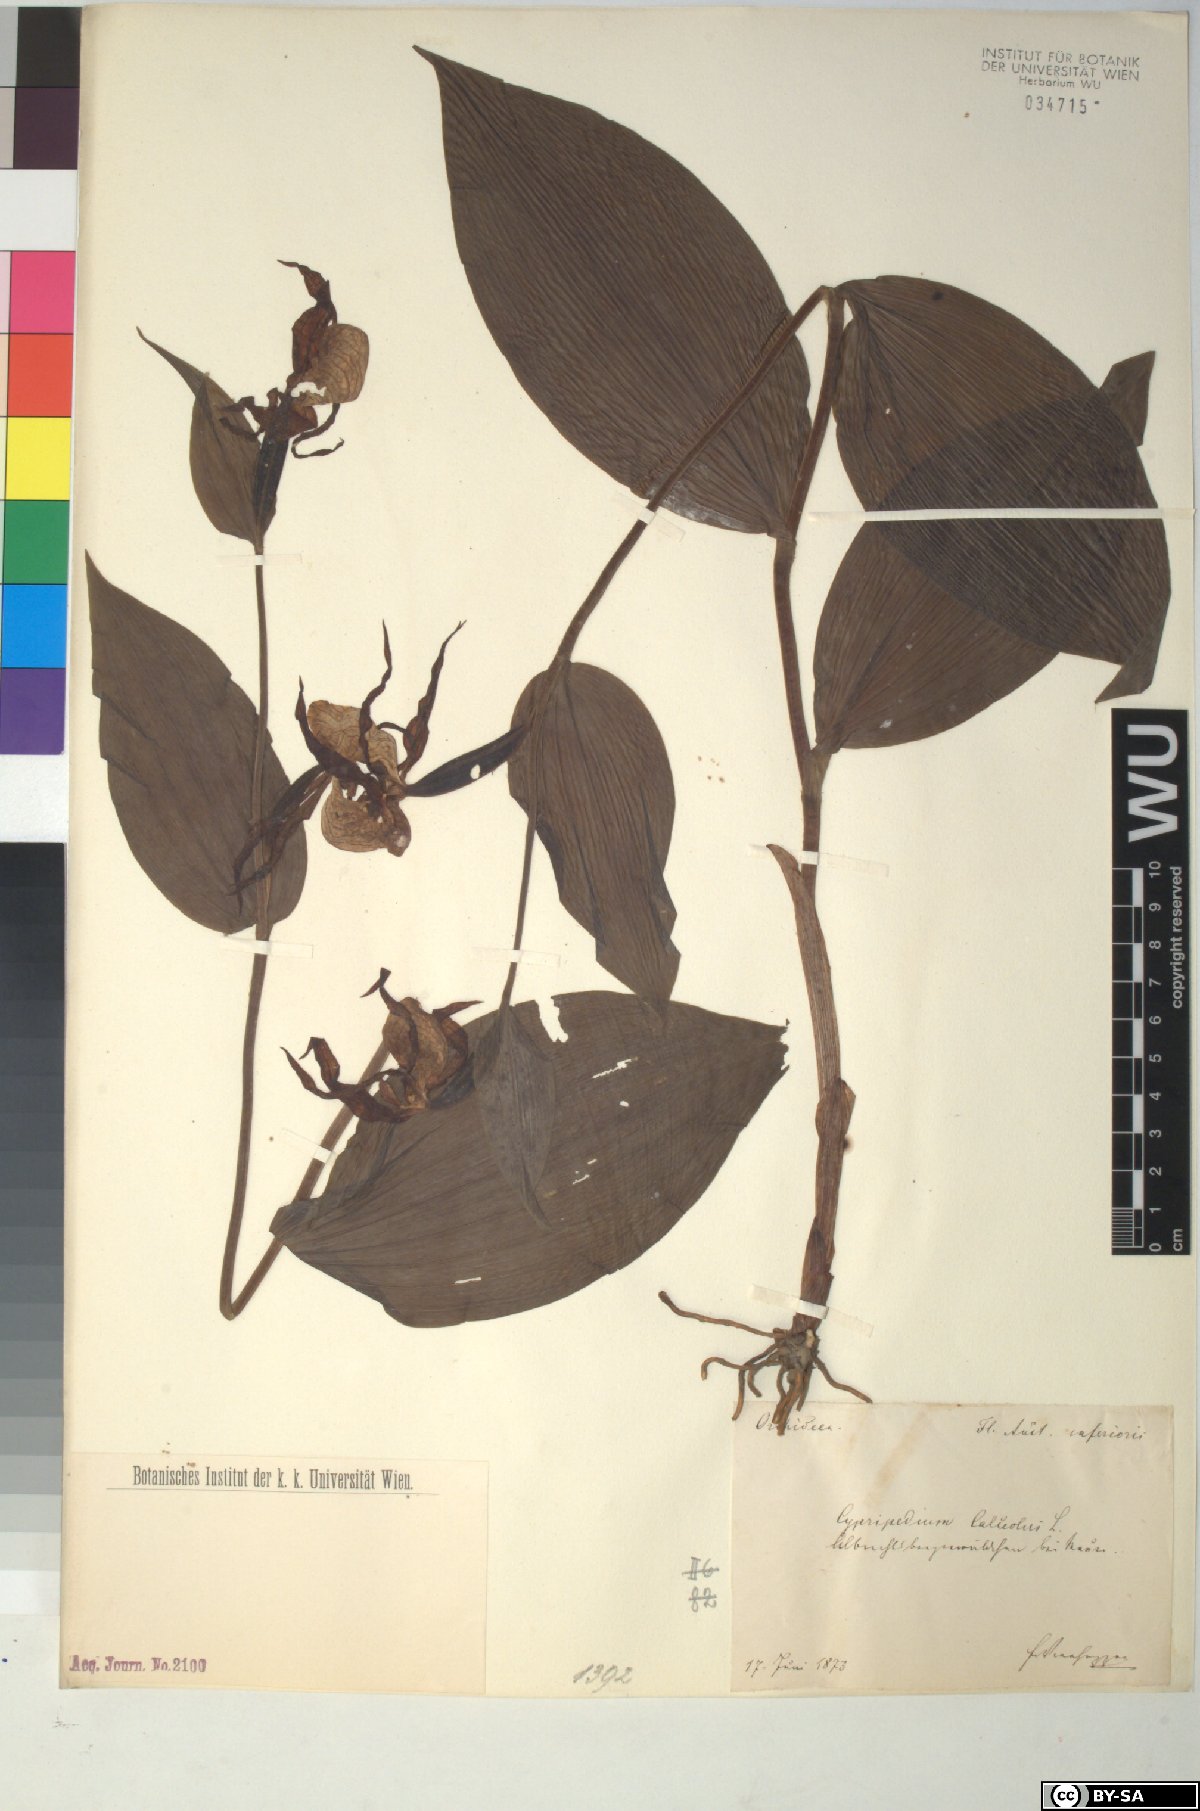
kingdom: Plantae
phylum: Tracheophyta
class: Liliopsida
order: Asparagales
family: Orchidaceae
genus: Cypripedium
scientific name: Cypripedium calceolus
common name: Lady's-slipper
